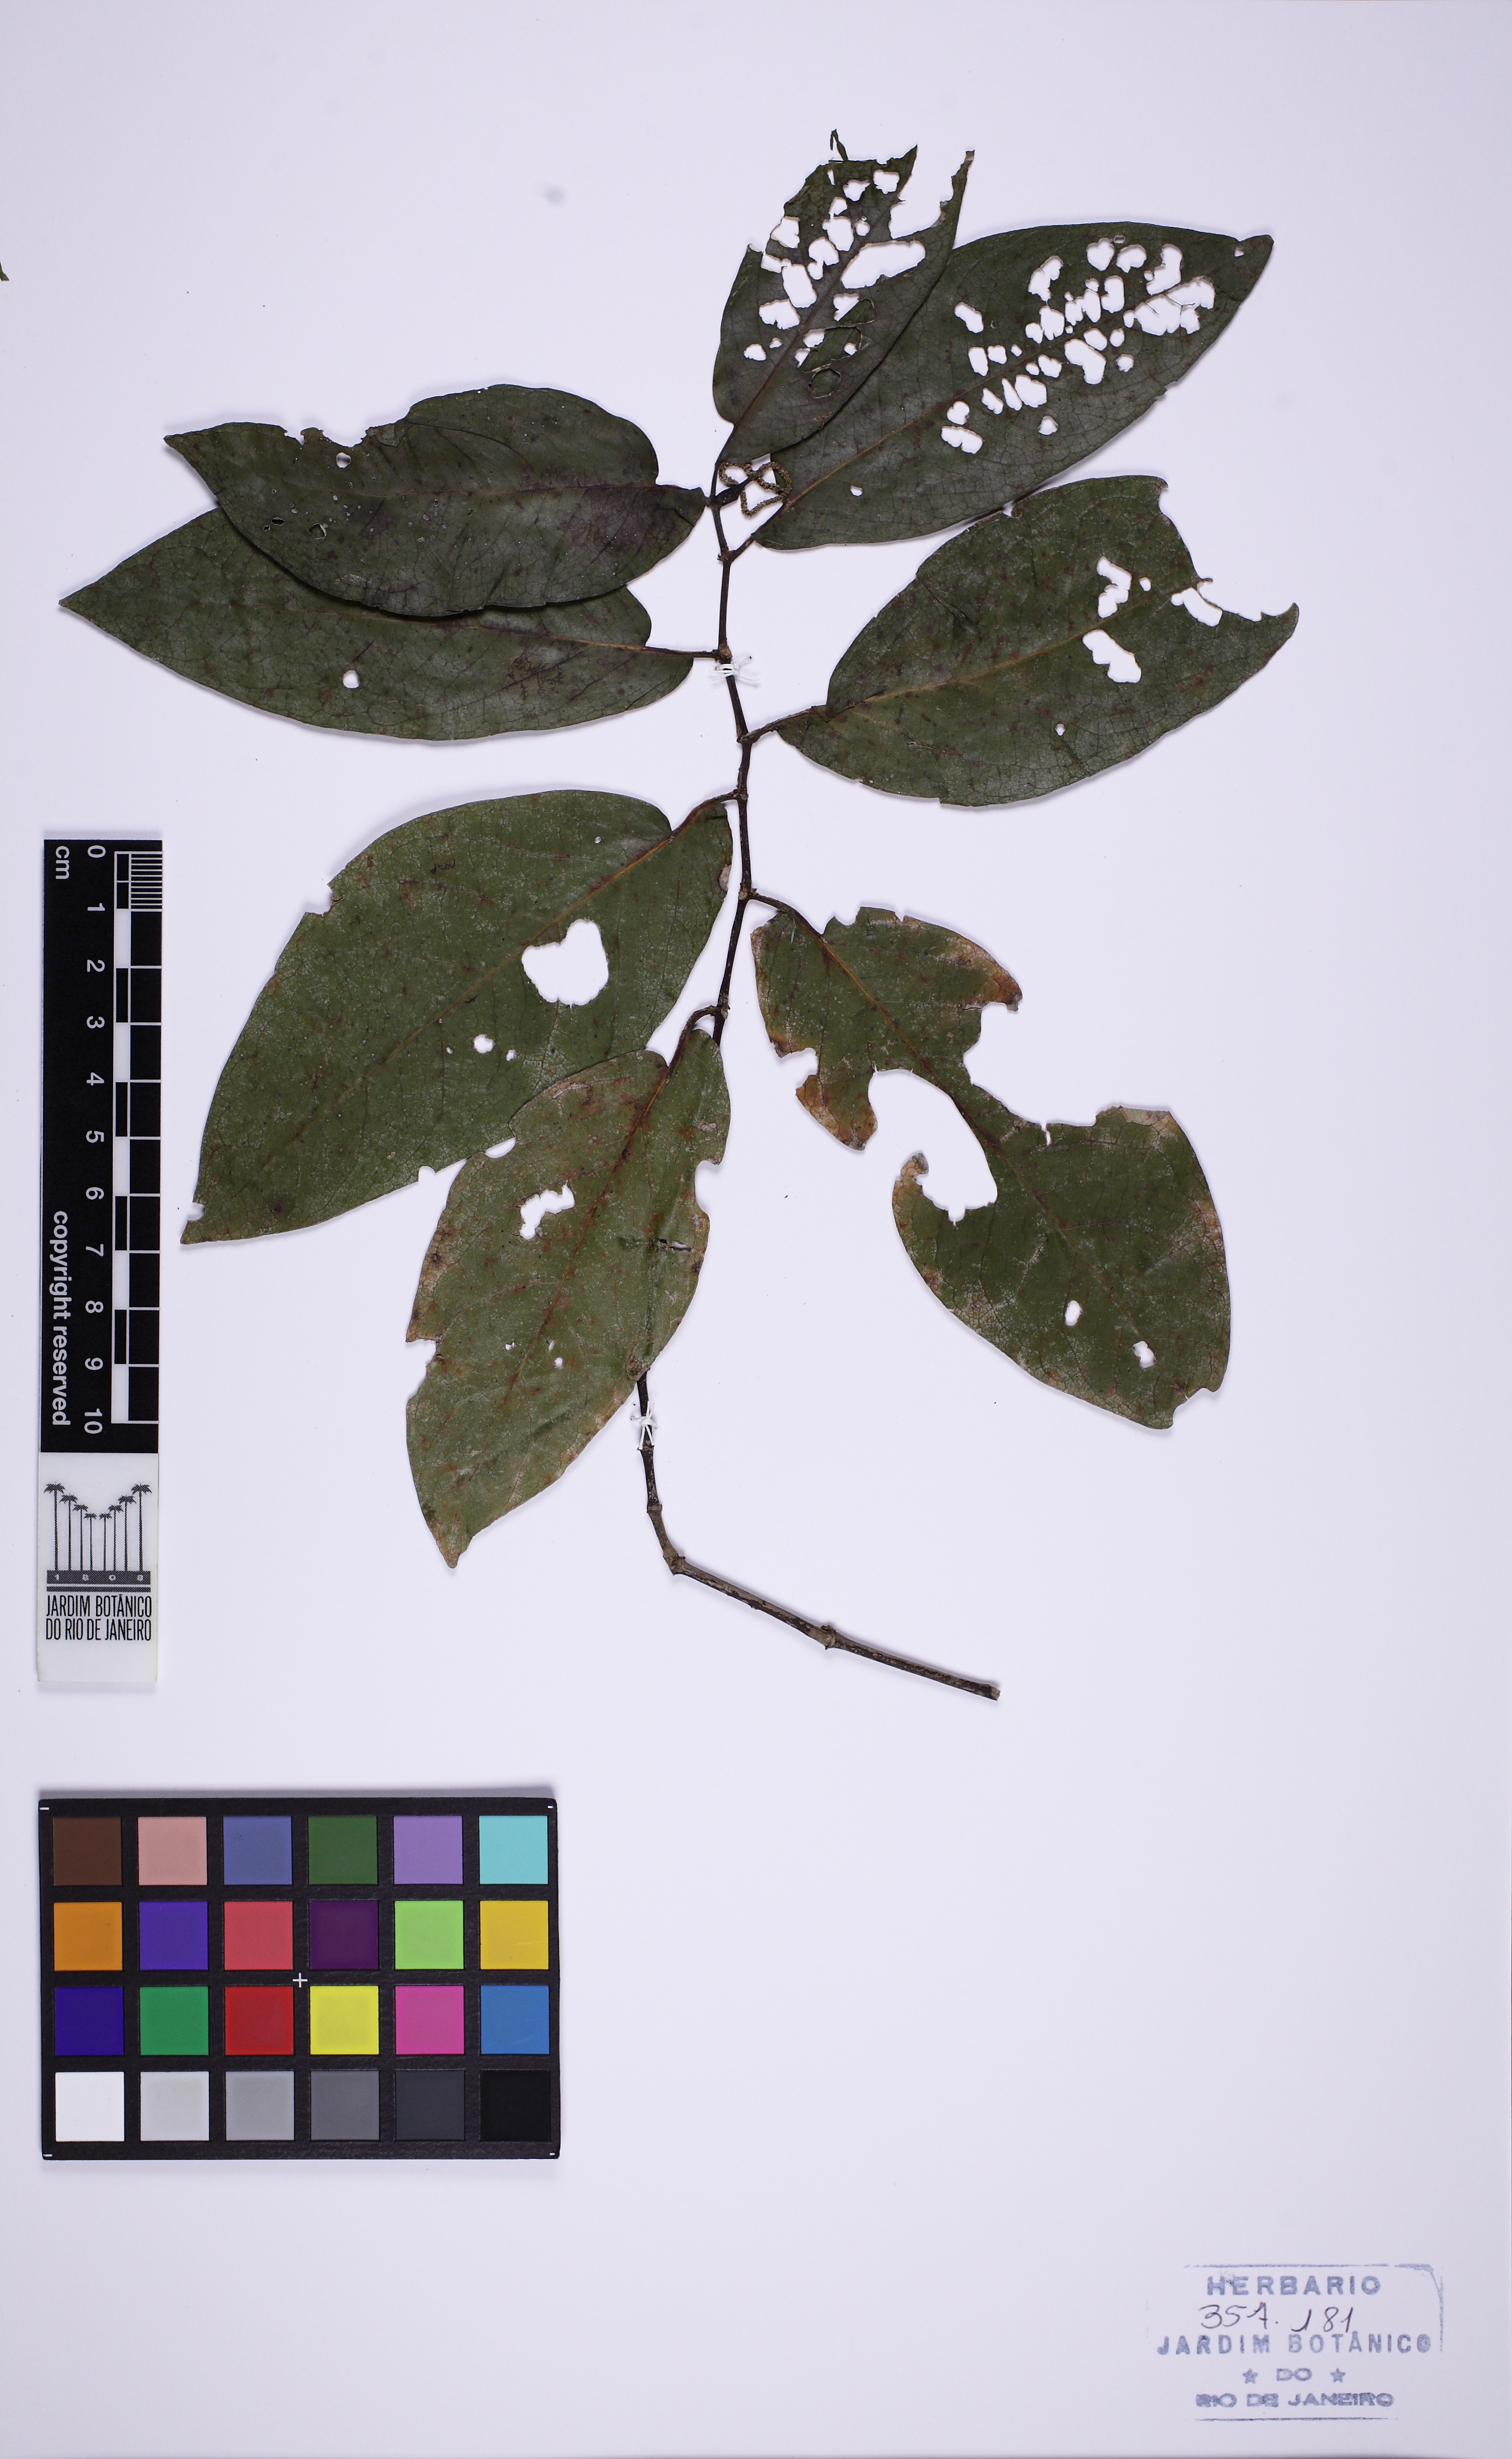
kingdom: Plantae
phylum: Tracheophyta
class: Magnoliopsida
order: Piperales
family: Piperaceae
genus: Piper
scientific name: Piper tuberculatum
